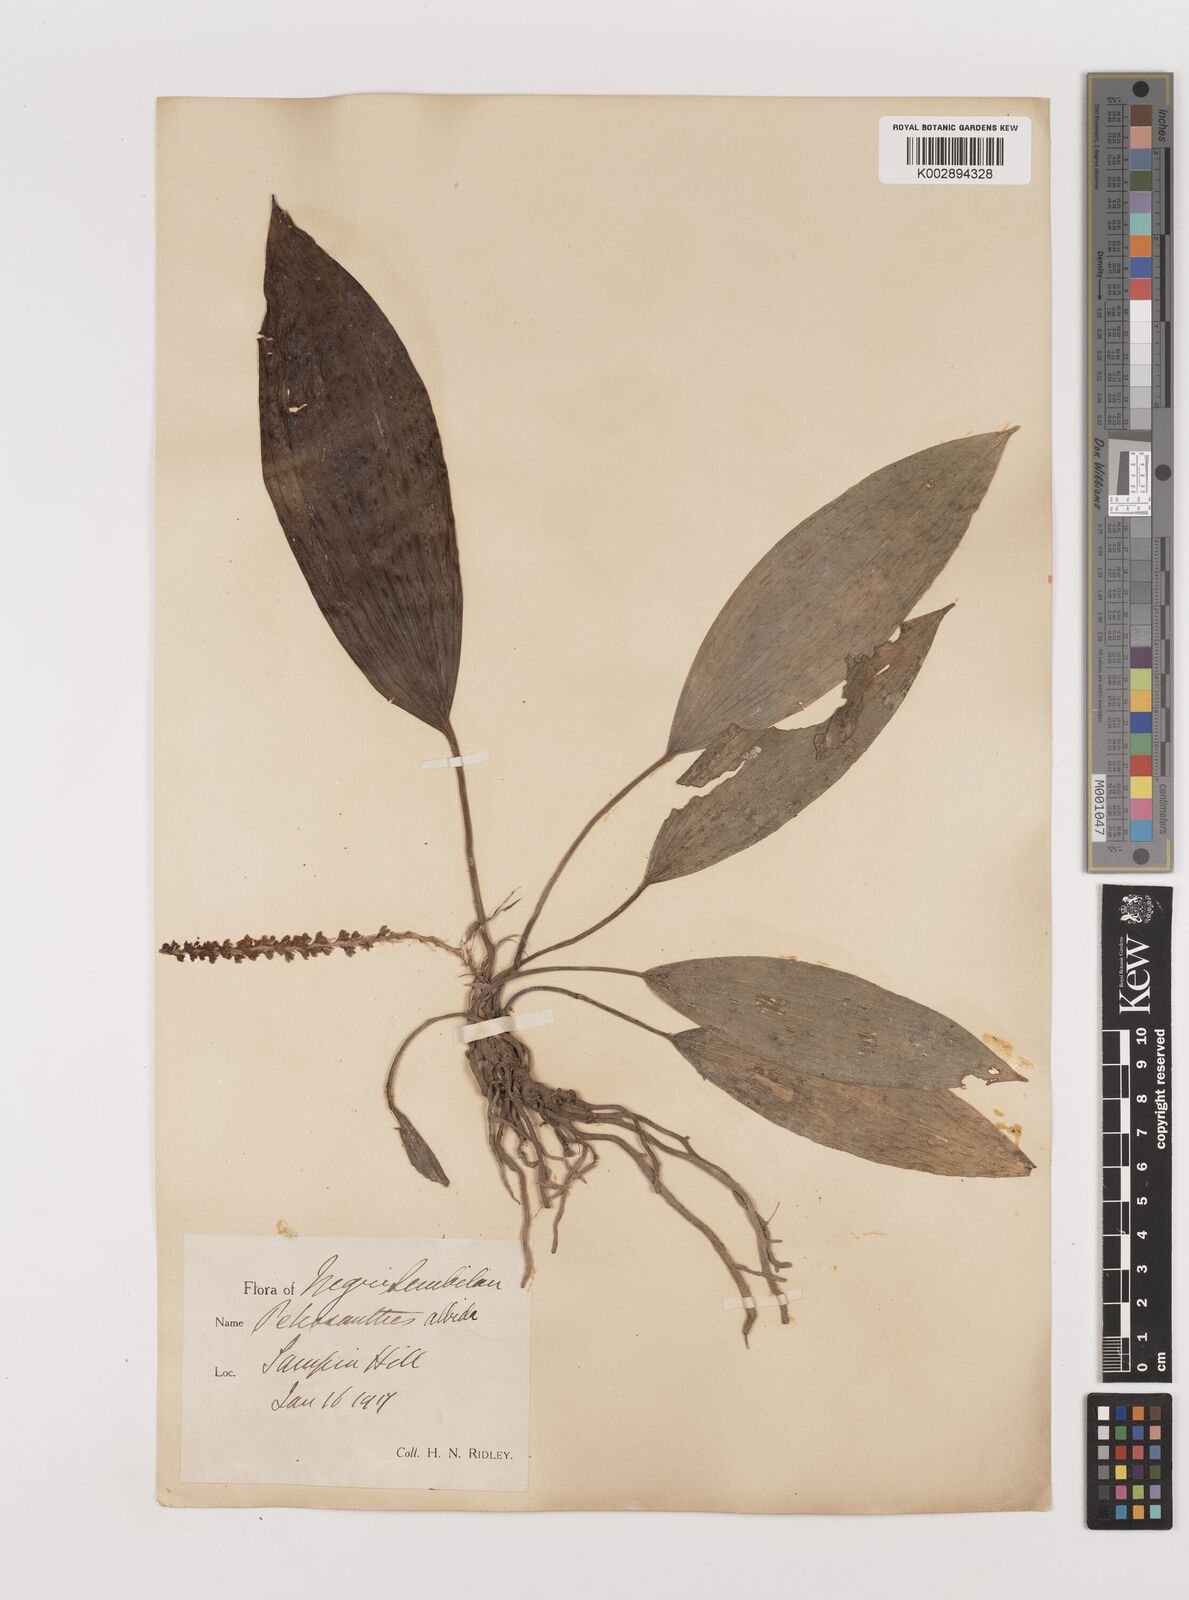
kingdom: Plantae
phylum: Tracheophyta
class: Liliopsida
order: Asparagales
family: Asparagaceae
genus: Peliosanthes
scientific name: Peliosanthes teta
